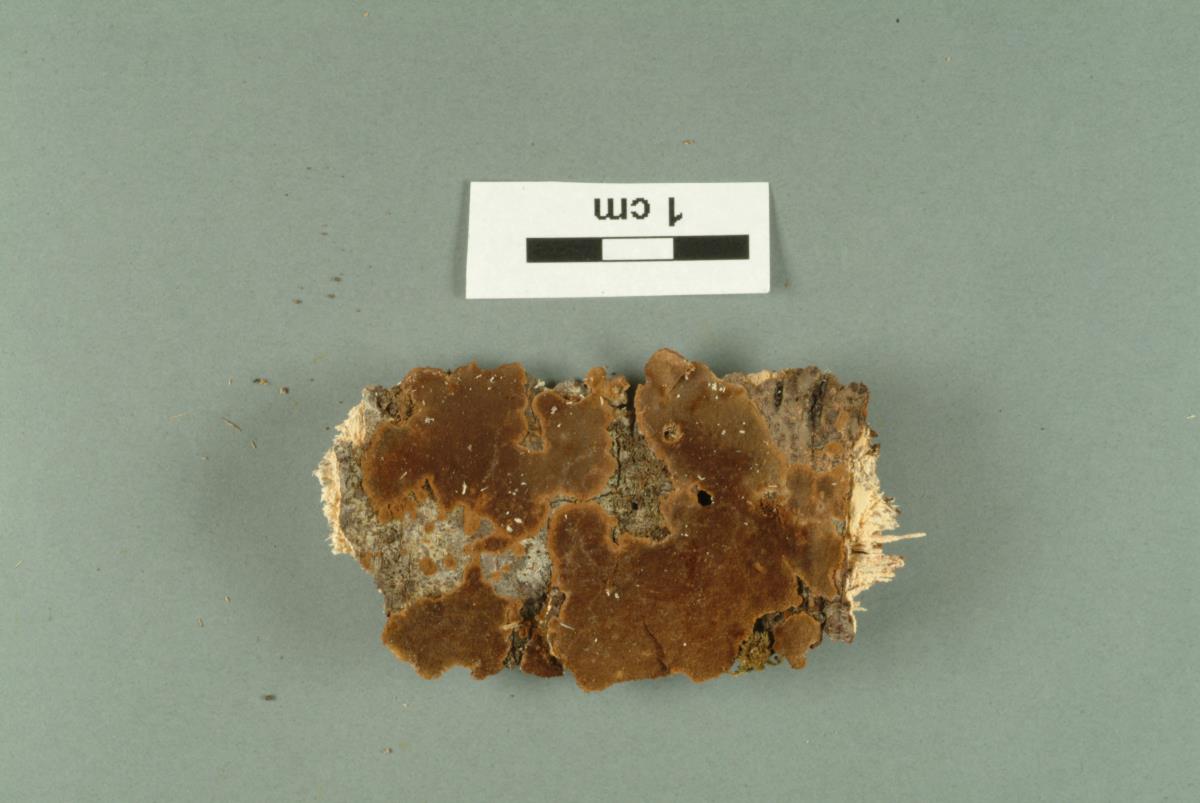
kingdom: Fungi
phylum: Basidiomycota
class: Agaricomycetes
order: Hymenochaetales
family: Hymenochaetaceae
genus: Tropicoporus
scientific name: Tropicoporus nothofagi
